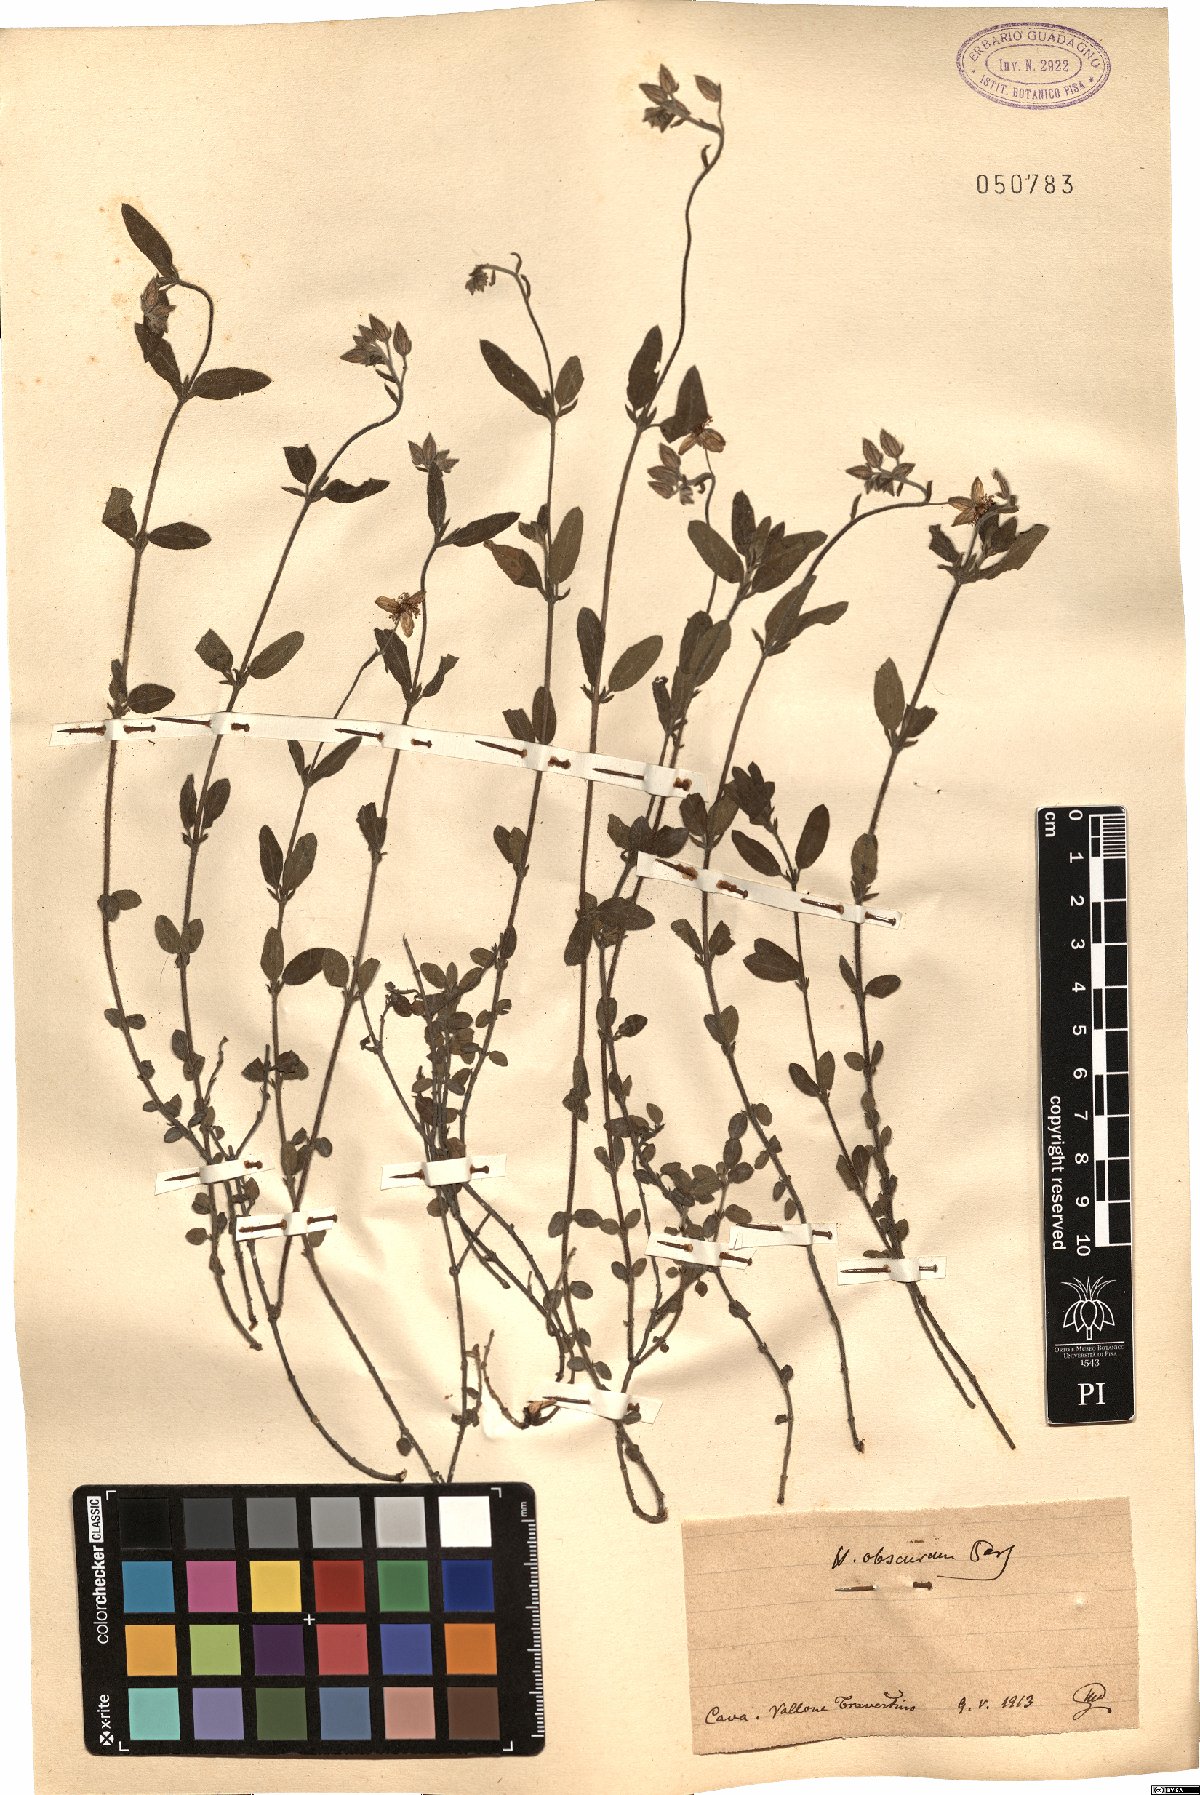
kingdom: Plantae
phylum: Tracheophyta
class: Magnoliopsida
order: Malvales
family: Cistaceae
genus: Helianthemum
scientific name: Helianthemum nummularium
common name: Common rock-rose
